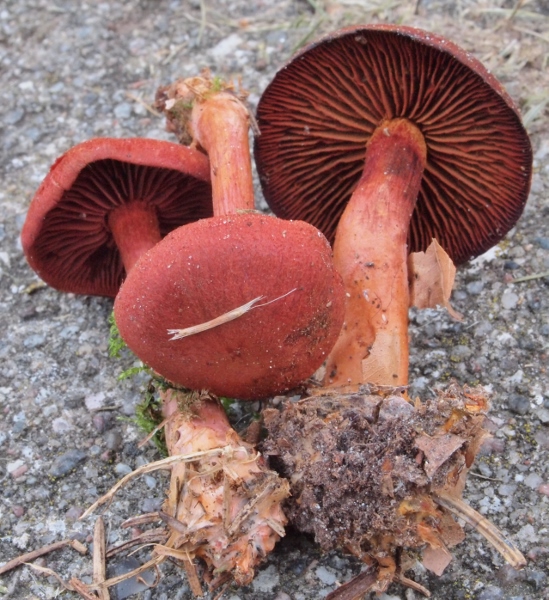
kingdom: Fungi
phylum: Basidiomycota
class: Agaricomycetes
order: Agaricales
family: Cortinariaceae
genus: Cortinarius
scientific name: Cortinarius sanguineus
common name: blodrød slørhat
